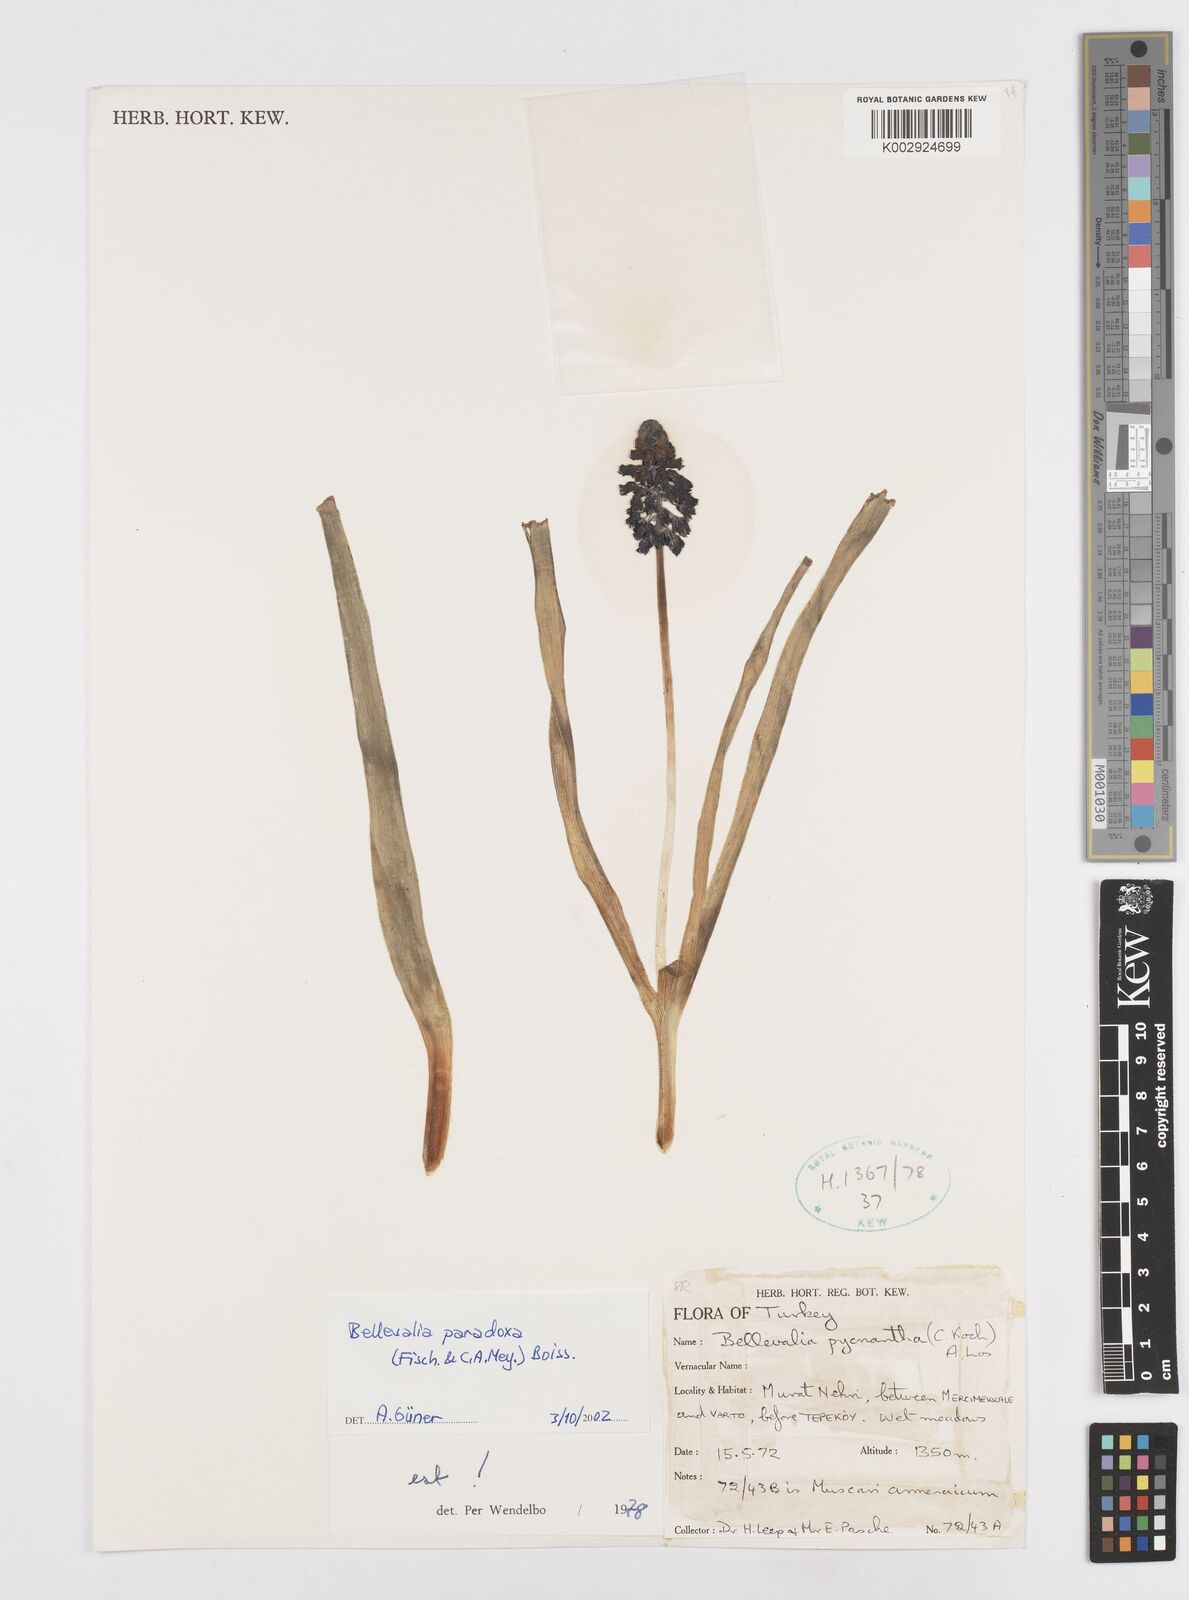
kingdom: Plantae
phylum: Tracheophyta
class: Liliopsida
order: Asparagales
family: Asparagaceae
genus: Bellevalia
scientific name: Bellevalia paradoxa
